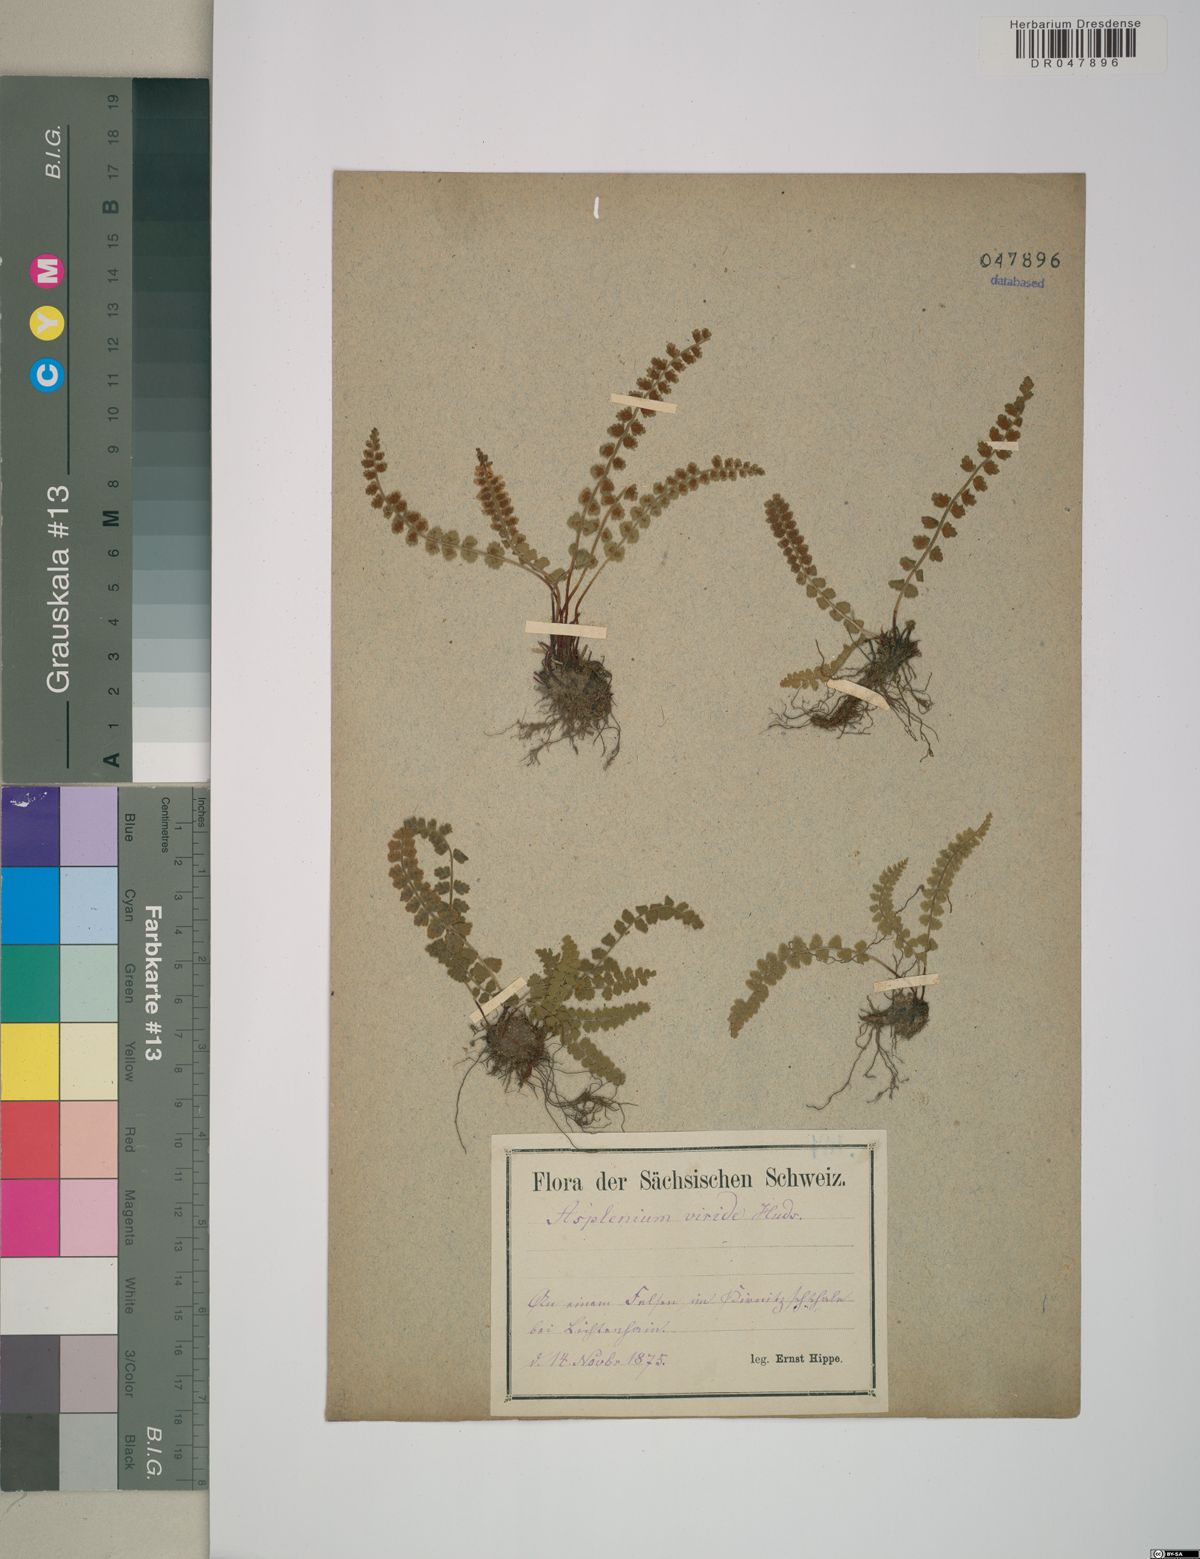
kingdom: Plantae
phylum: Tracheophyta
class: Polypodiopsida
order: Polypodiales
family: Aspleniaceae
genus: Asplenium
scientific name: Asplenium viride
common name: Green spleenwort
